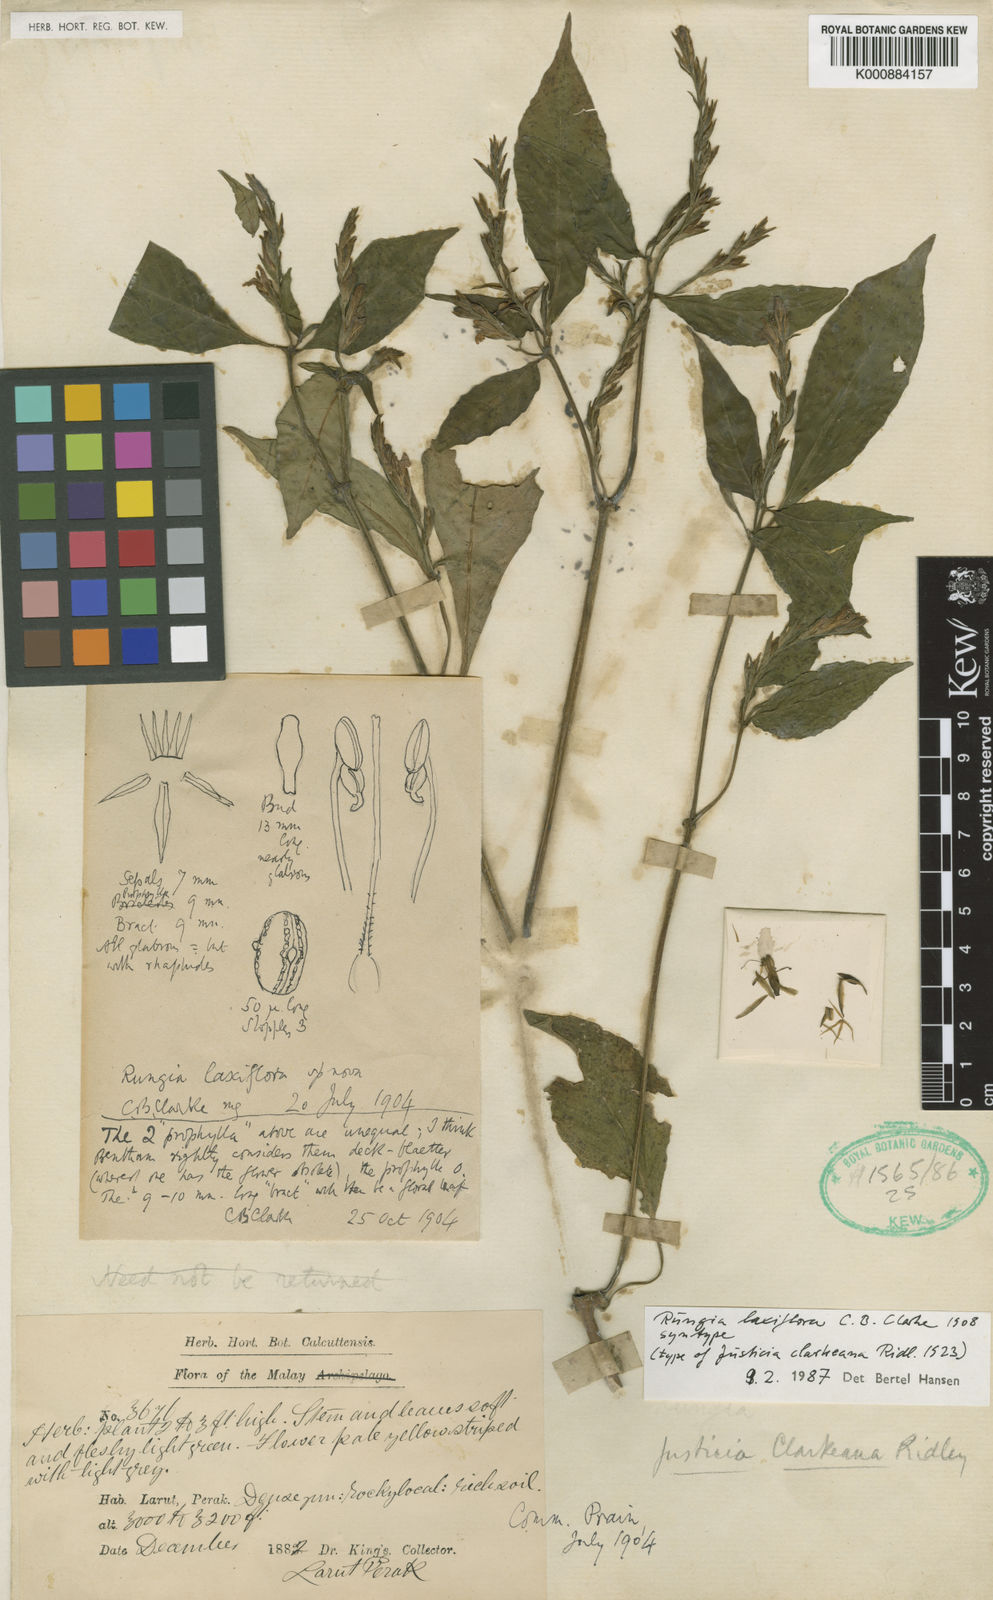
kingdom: Plantae
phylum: Tracheophyta
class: Magnoliopsida
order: Lamiales
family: Acanthaceae
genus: Haplanthus
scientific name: Haplanthus laxiflorus
